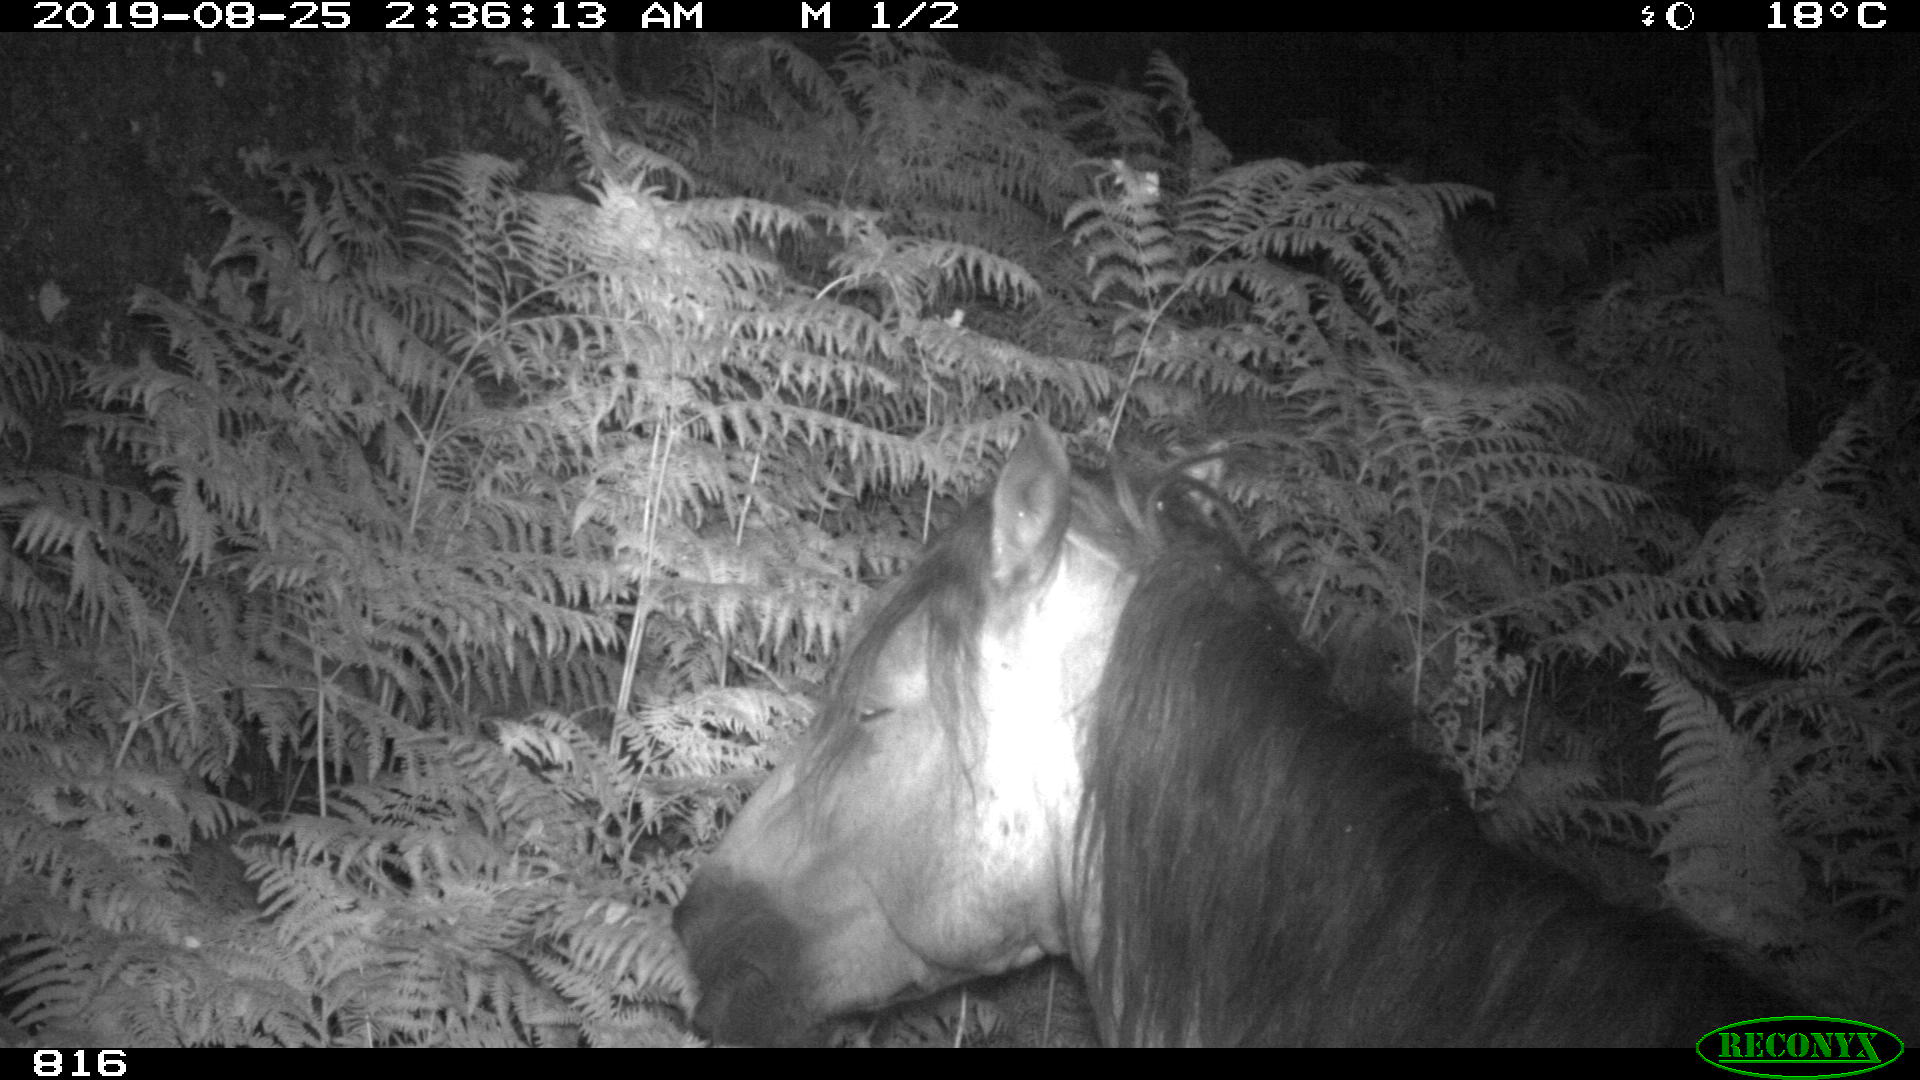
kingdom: Animalia
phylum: Chordata
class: Mammalia
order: Perissodactyla
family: Equidae
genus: Equus
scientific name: Equus caballus
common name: Horse
